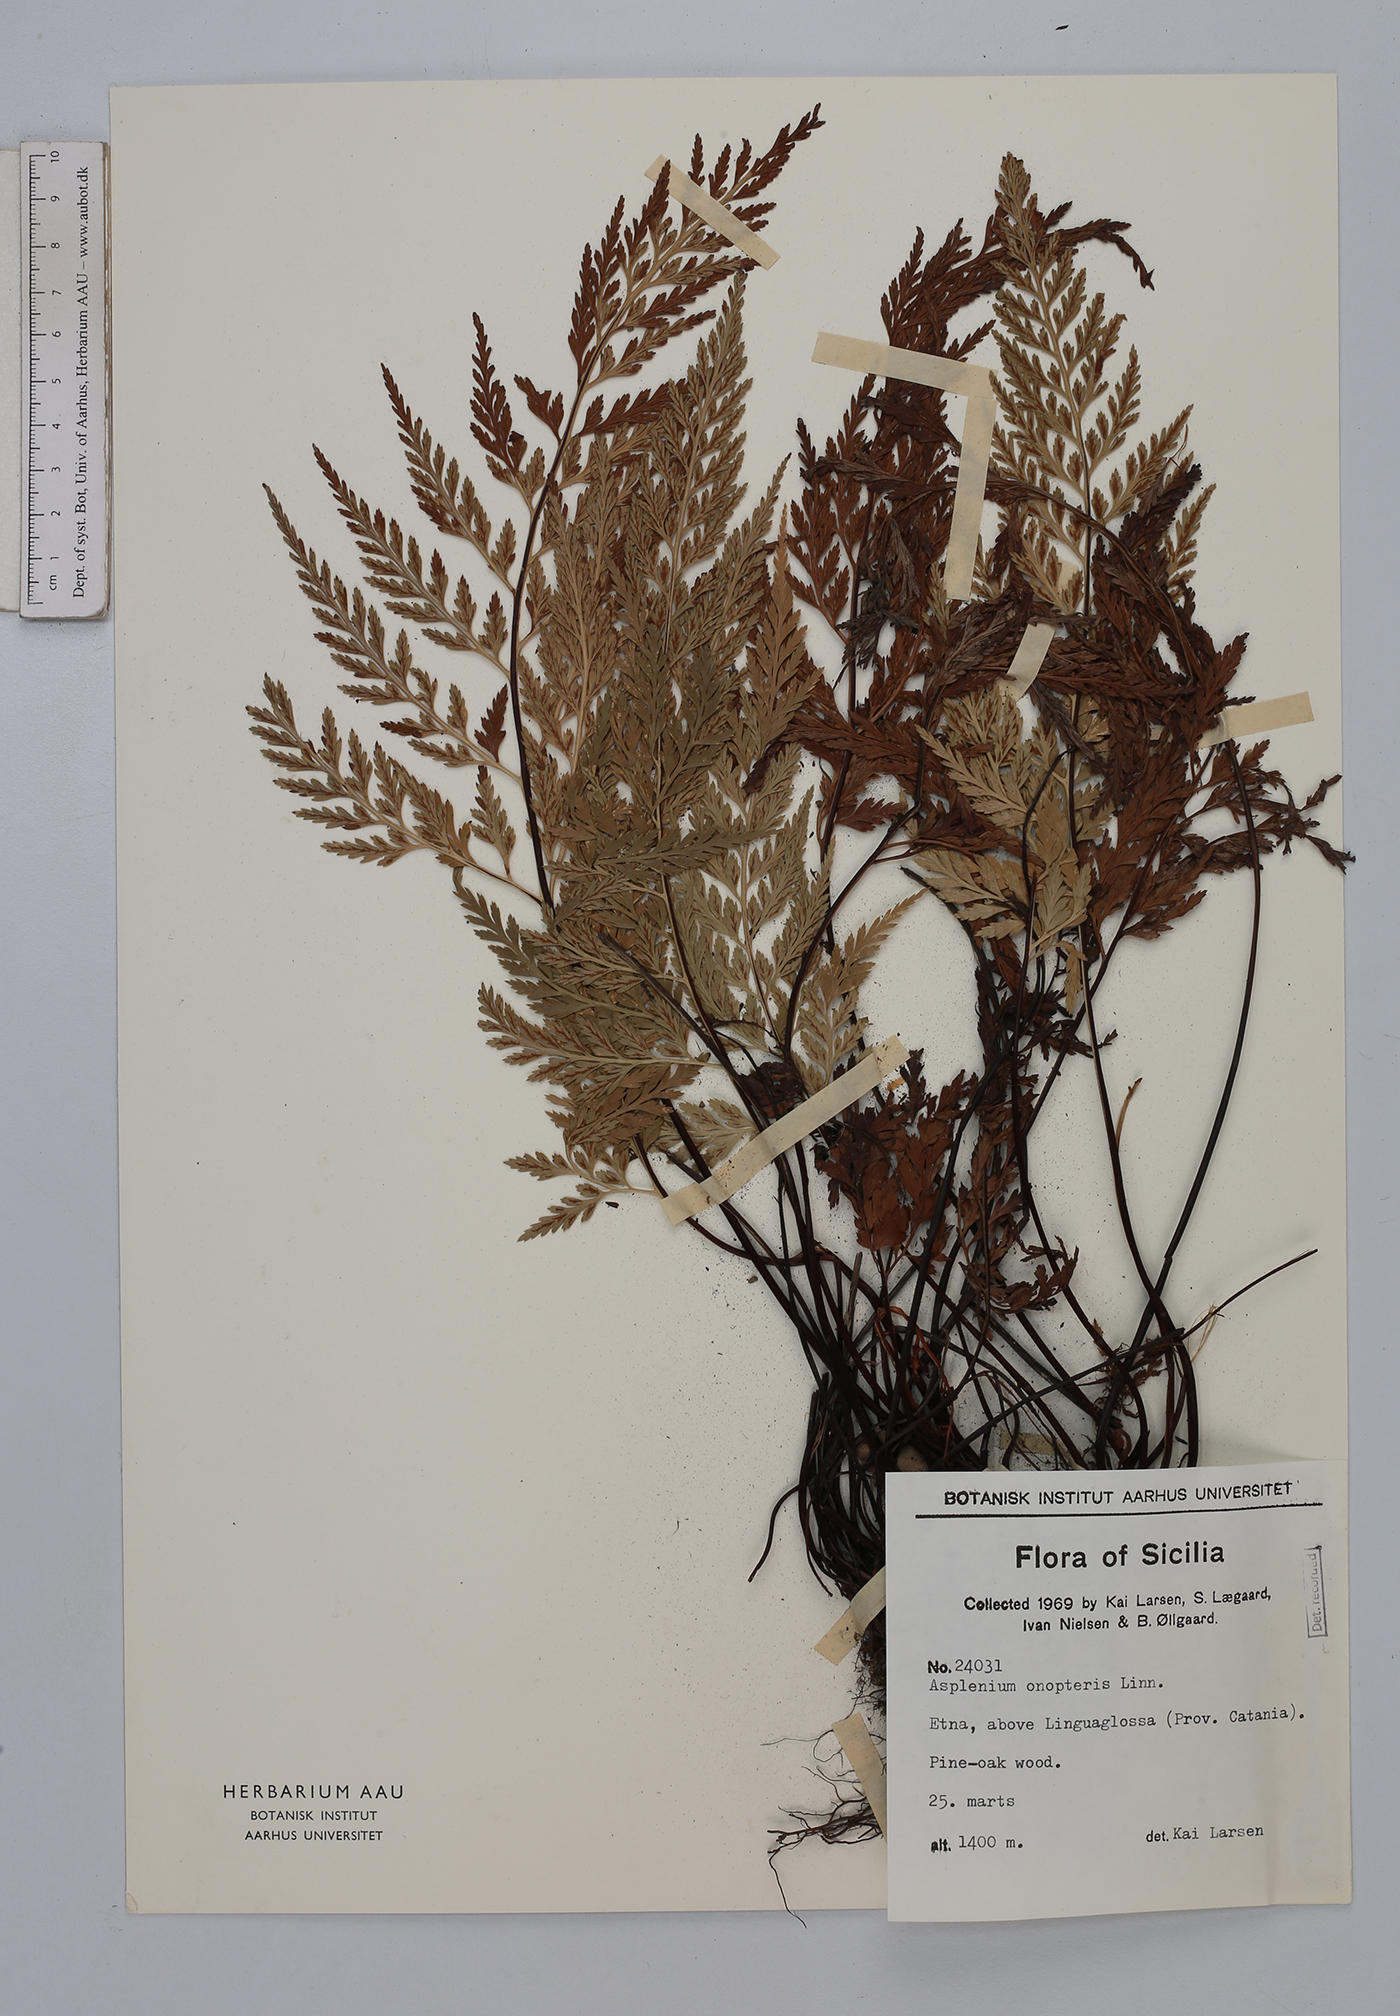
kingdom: Plantae
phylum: Tracheophyta
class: Polypodiopsida
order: Polypodiales
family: Aspleniaceae
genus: Asplenium
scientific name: Asplenium onopteris
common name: Irish spleenwort
